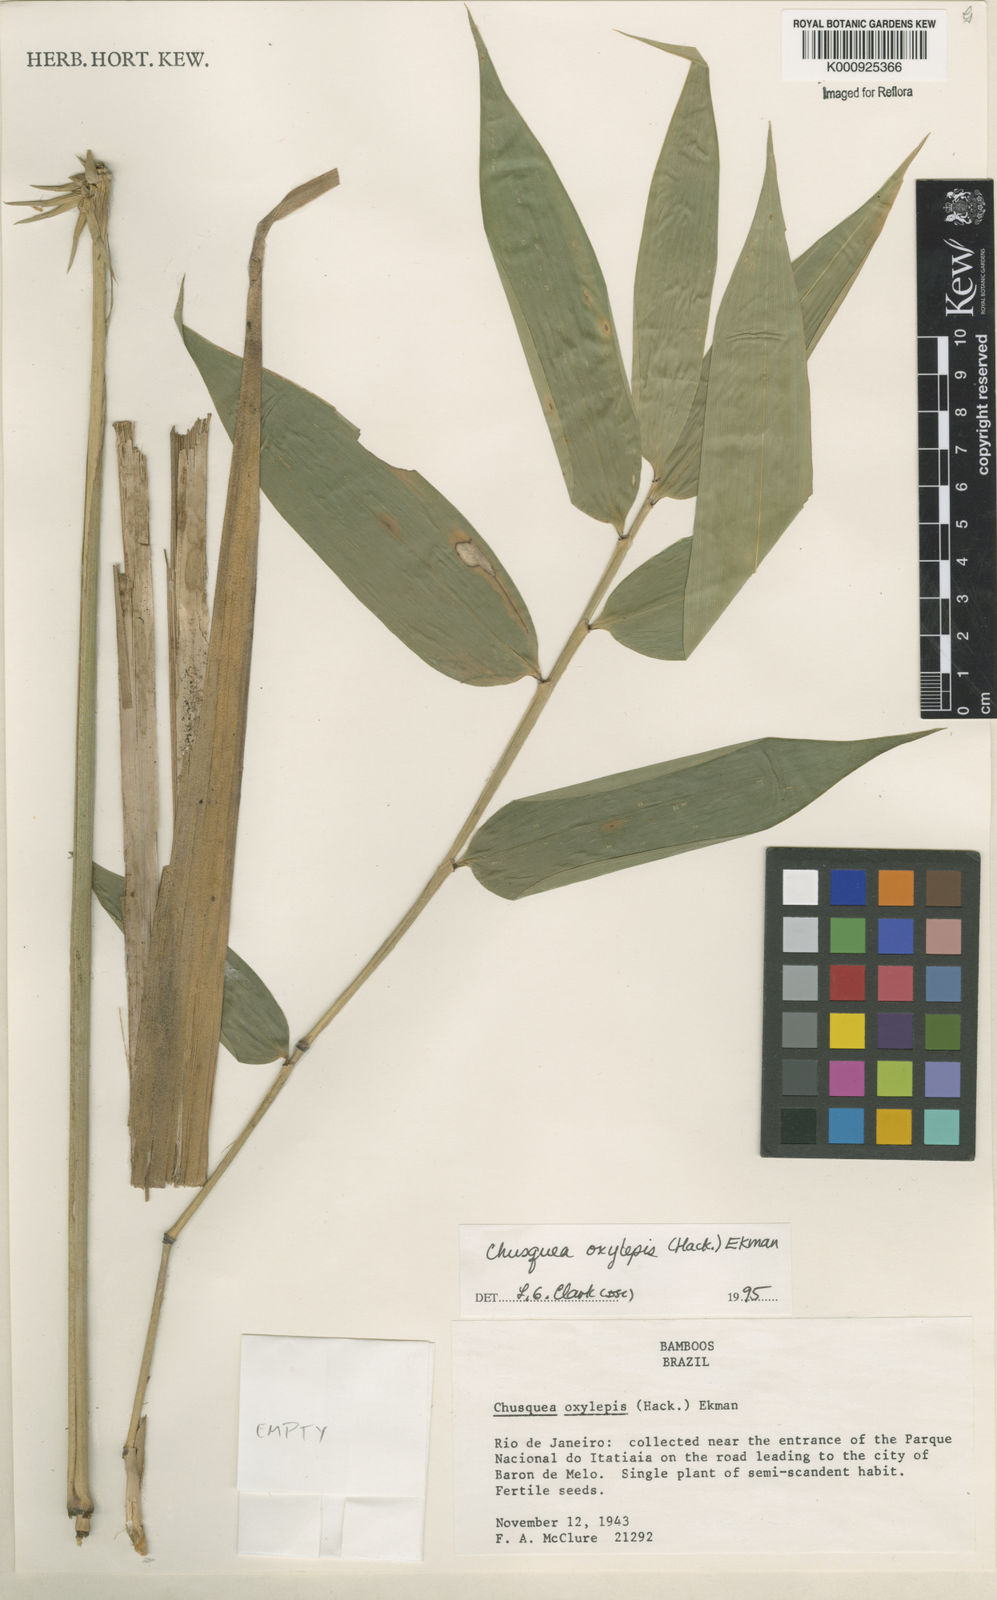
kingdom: Plantae
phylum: Tracheophyta
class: Liliopsida
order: Poales
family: Poaceae
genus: Chusquea
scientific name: Chusquea oxylepis
